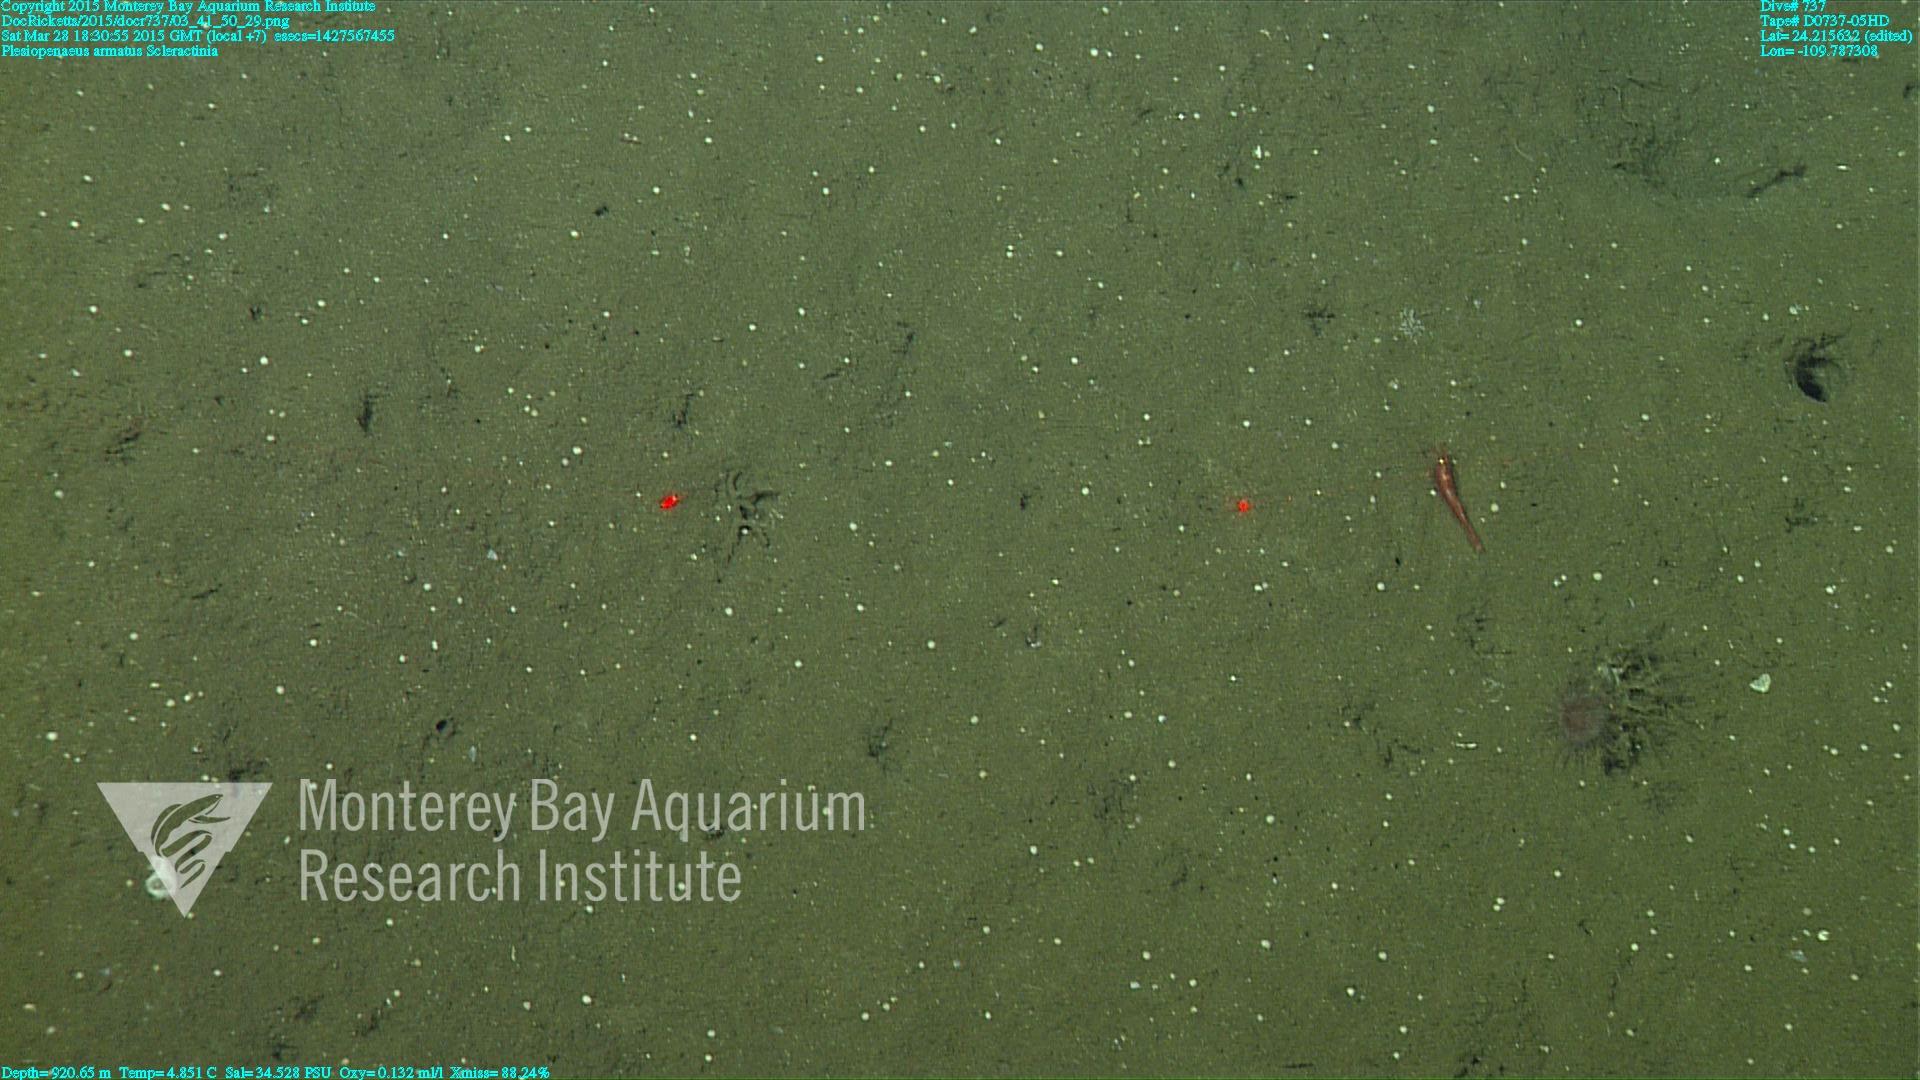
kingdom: Animalia
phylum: Cnidaria
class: Anthozoa
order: Scleractinia
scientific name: Scleractinia
